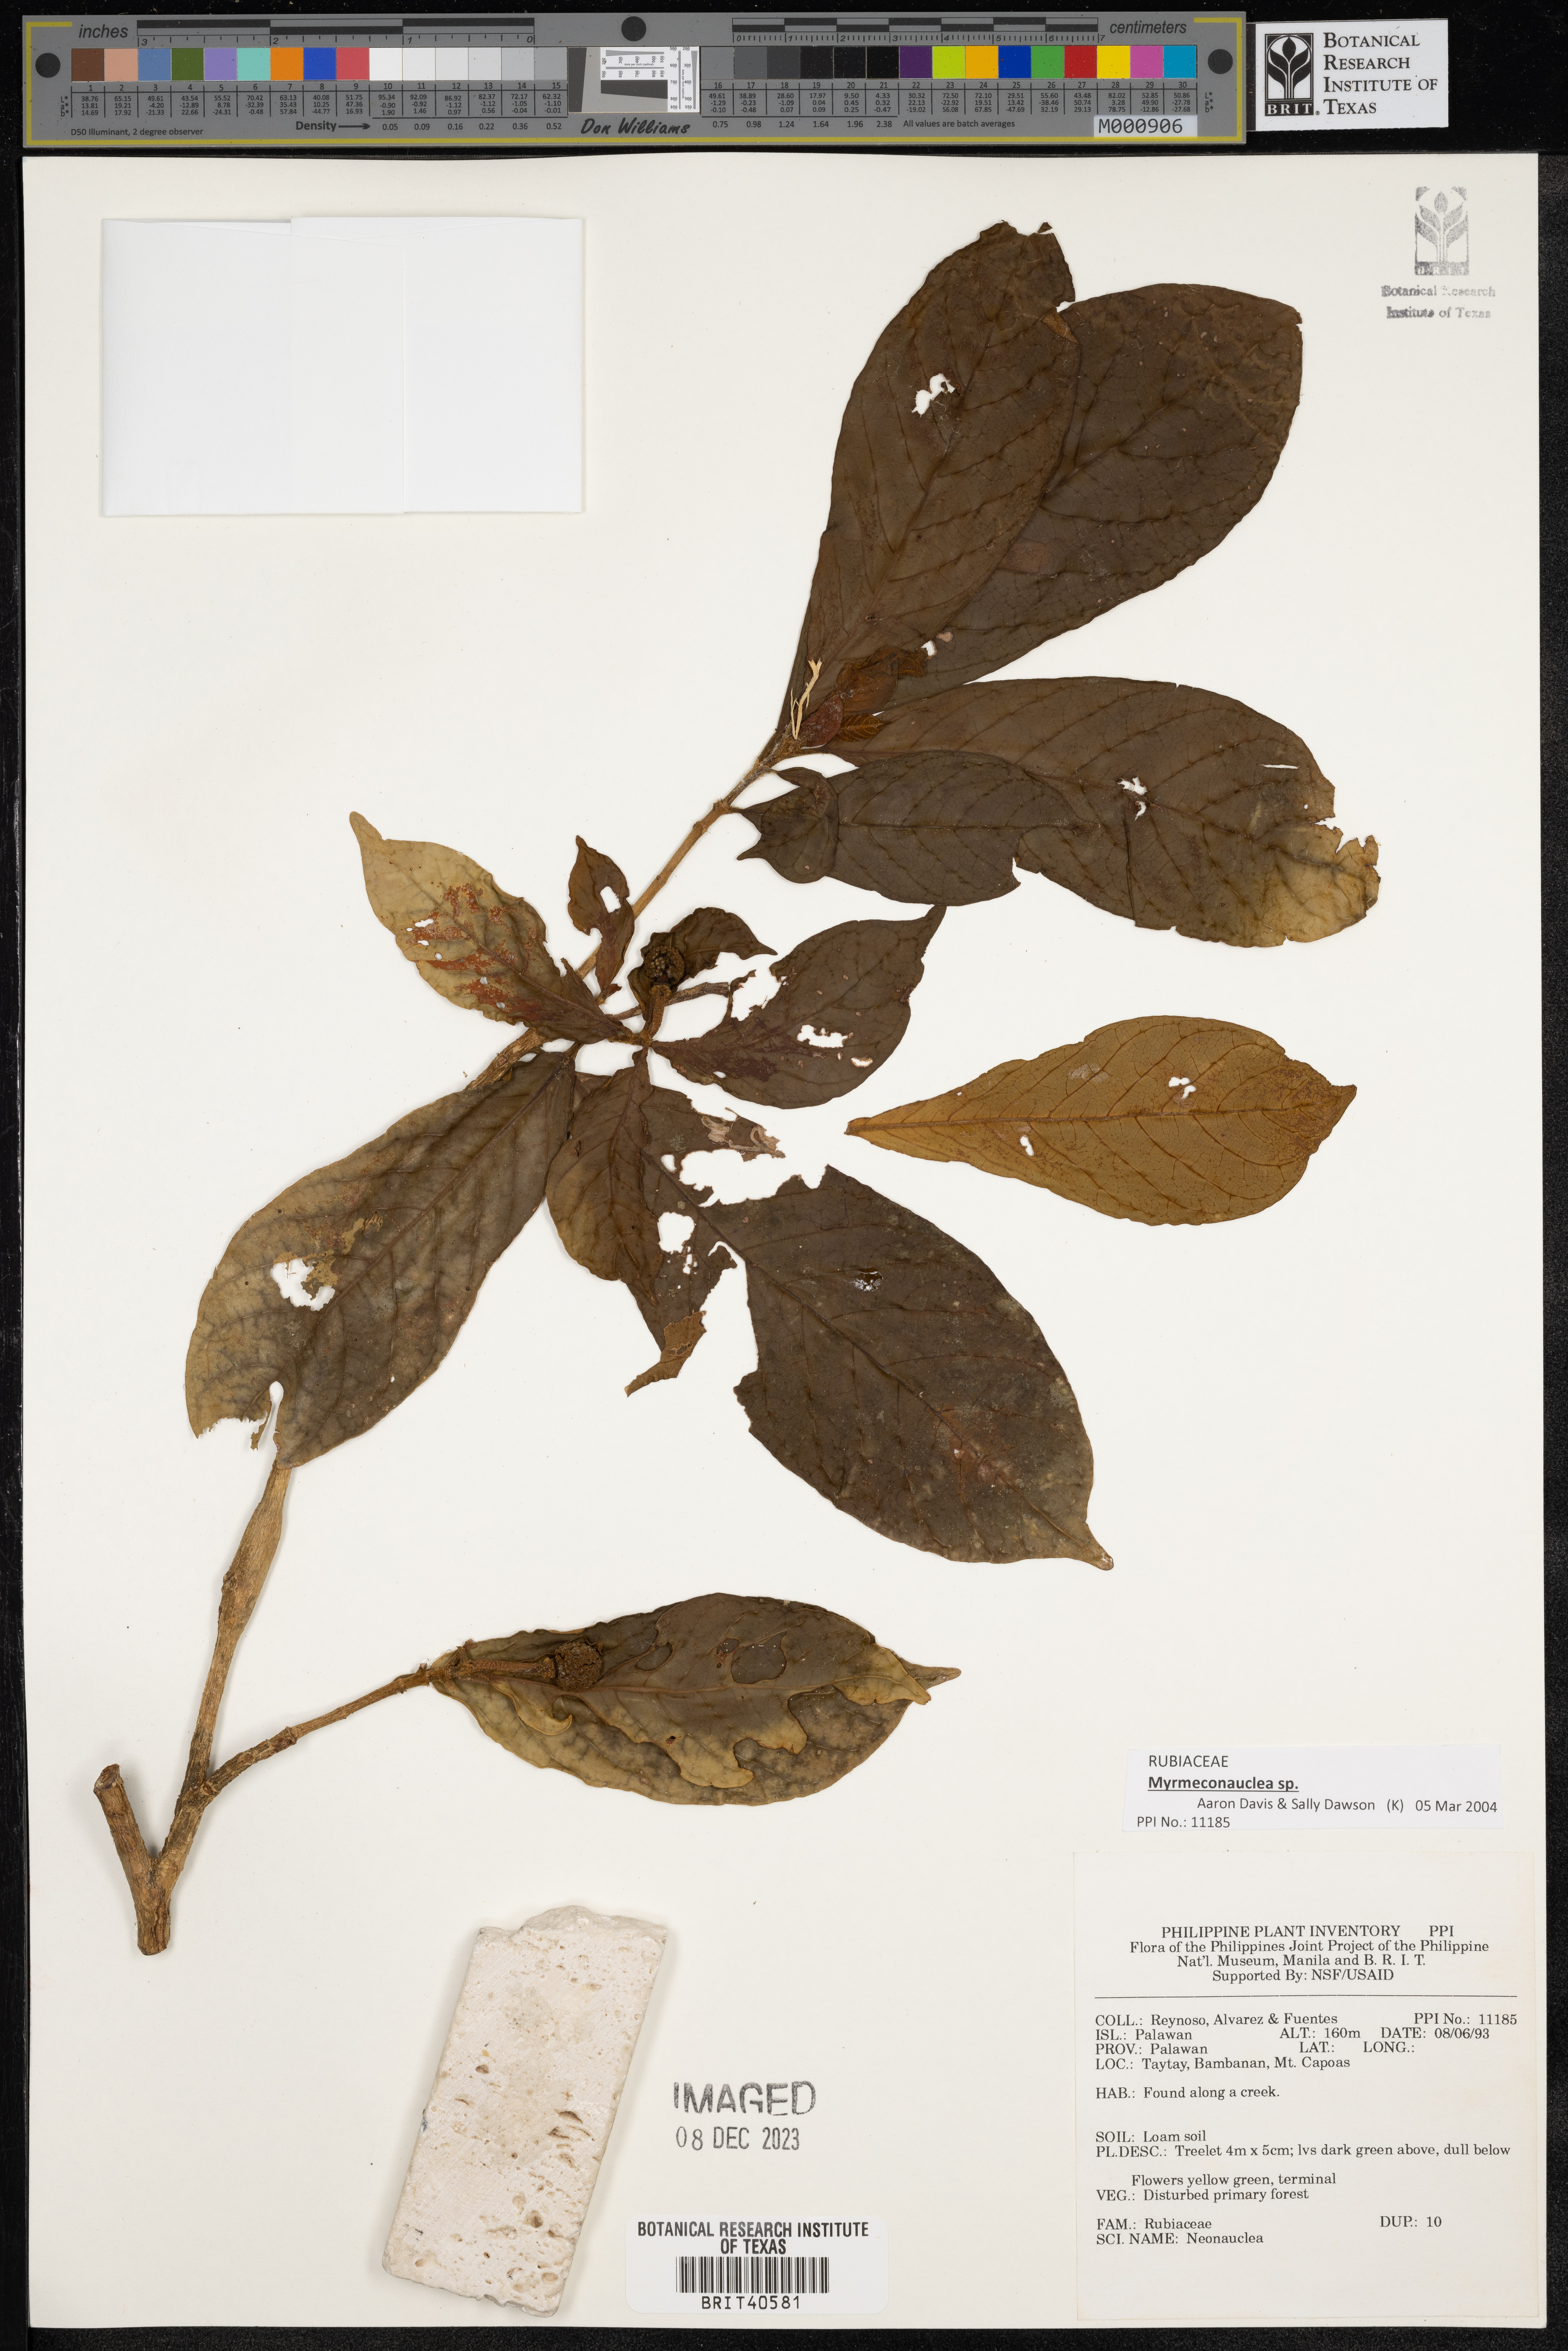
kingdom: Plantae
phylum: Tracheophyta
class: Magnoliopsida
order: Gentianales
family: Rubiaceae
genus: Neonauclea
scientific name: Neonauclea
